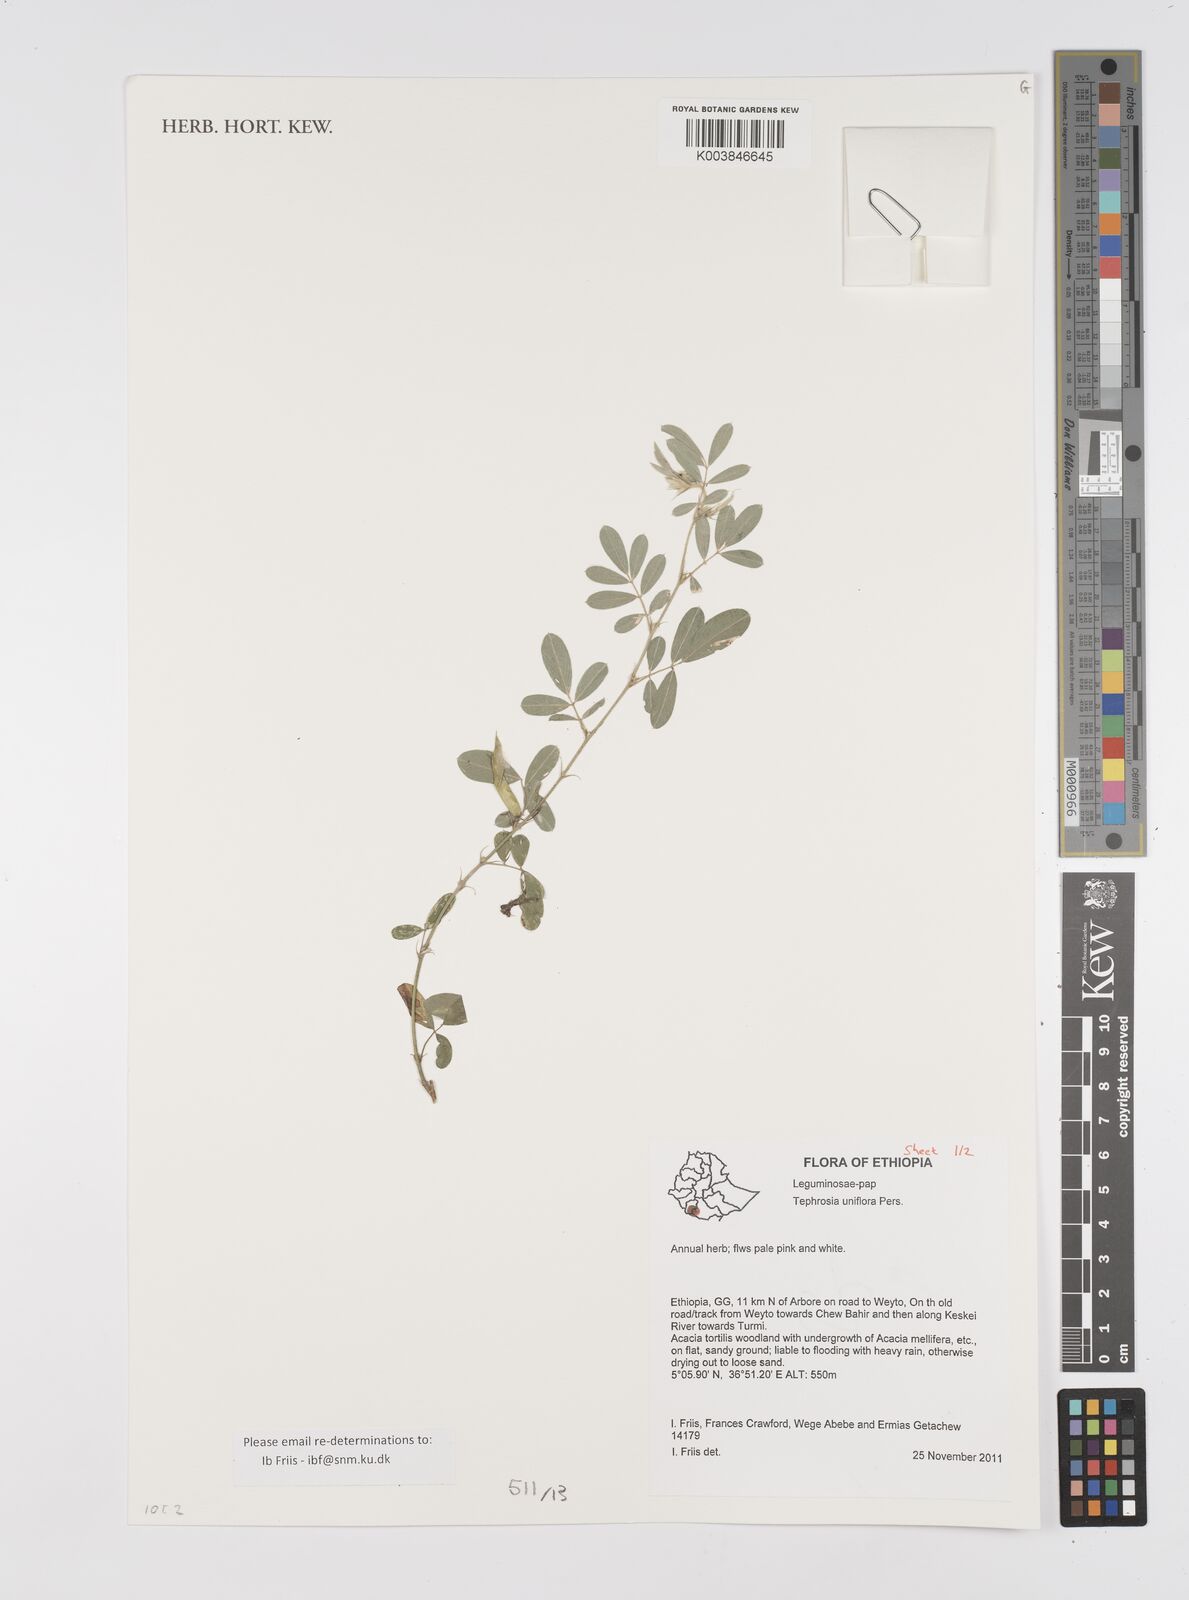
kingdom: Plantae
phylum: Tracheophyta
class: Magnoliopsida
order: Fabales
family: Fabaceae
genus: Tephrosia
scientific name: Tephrosia uniflora
